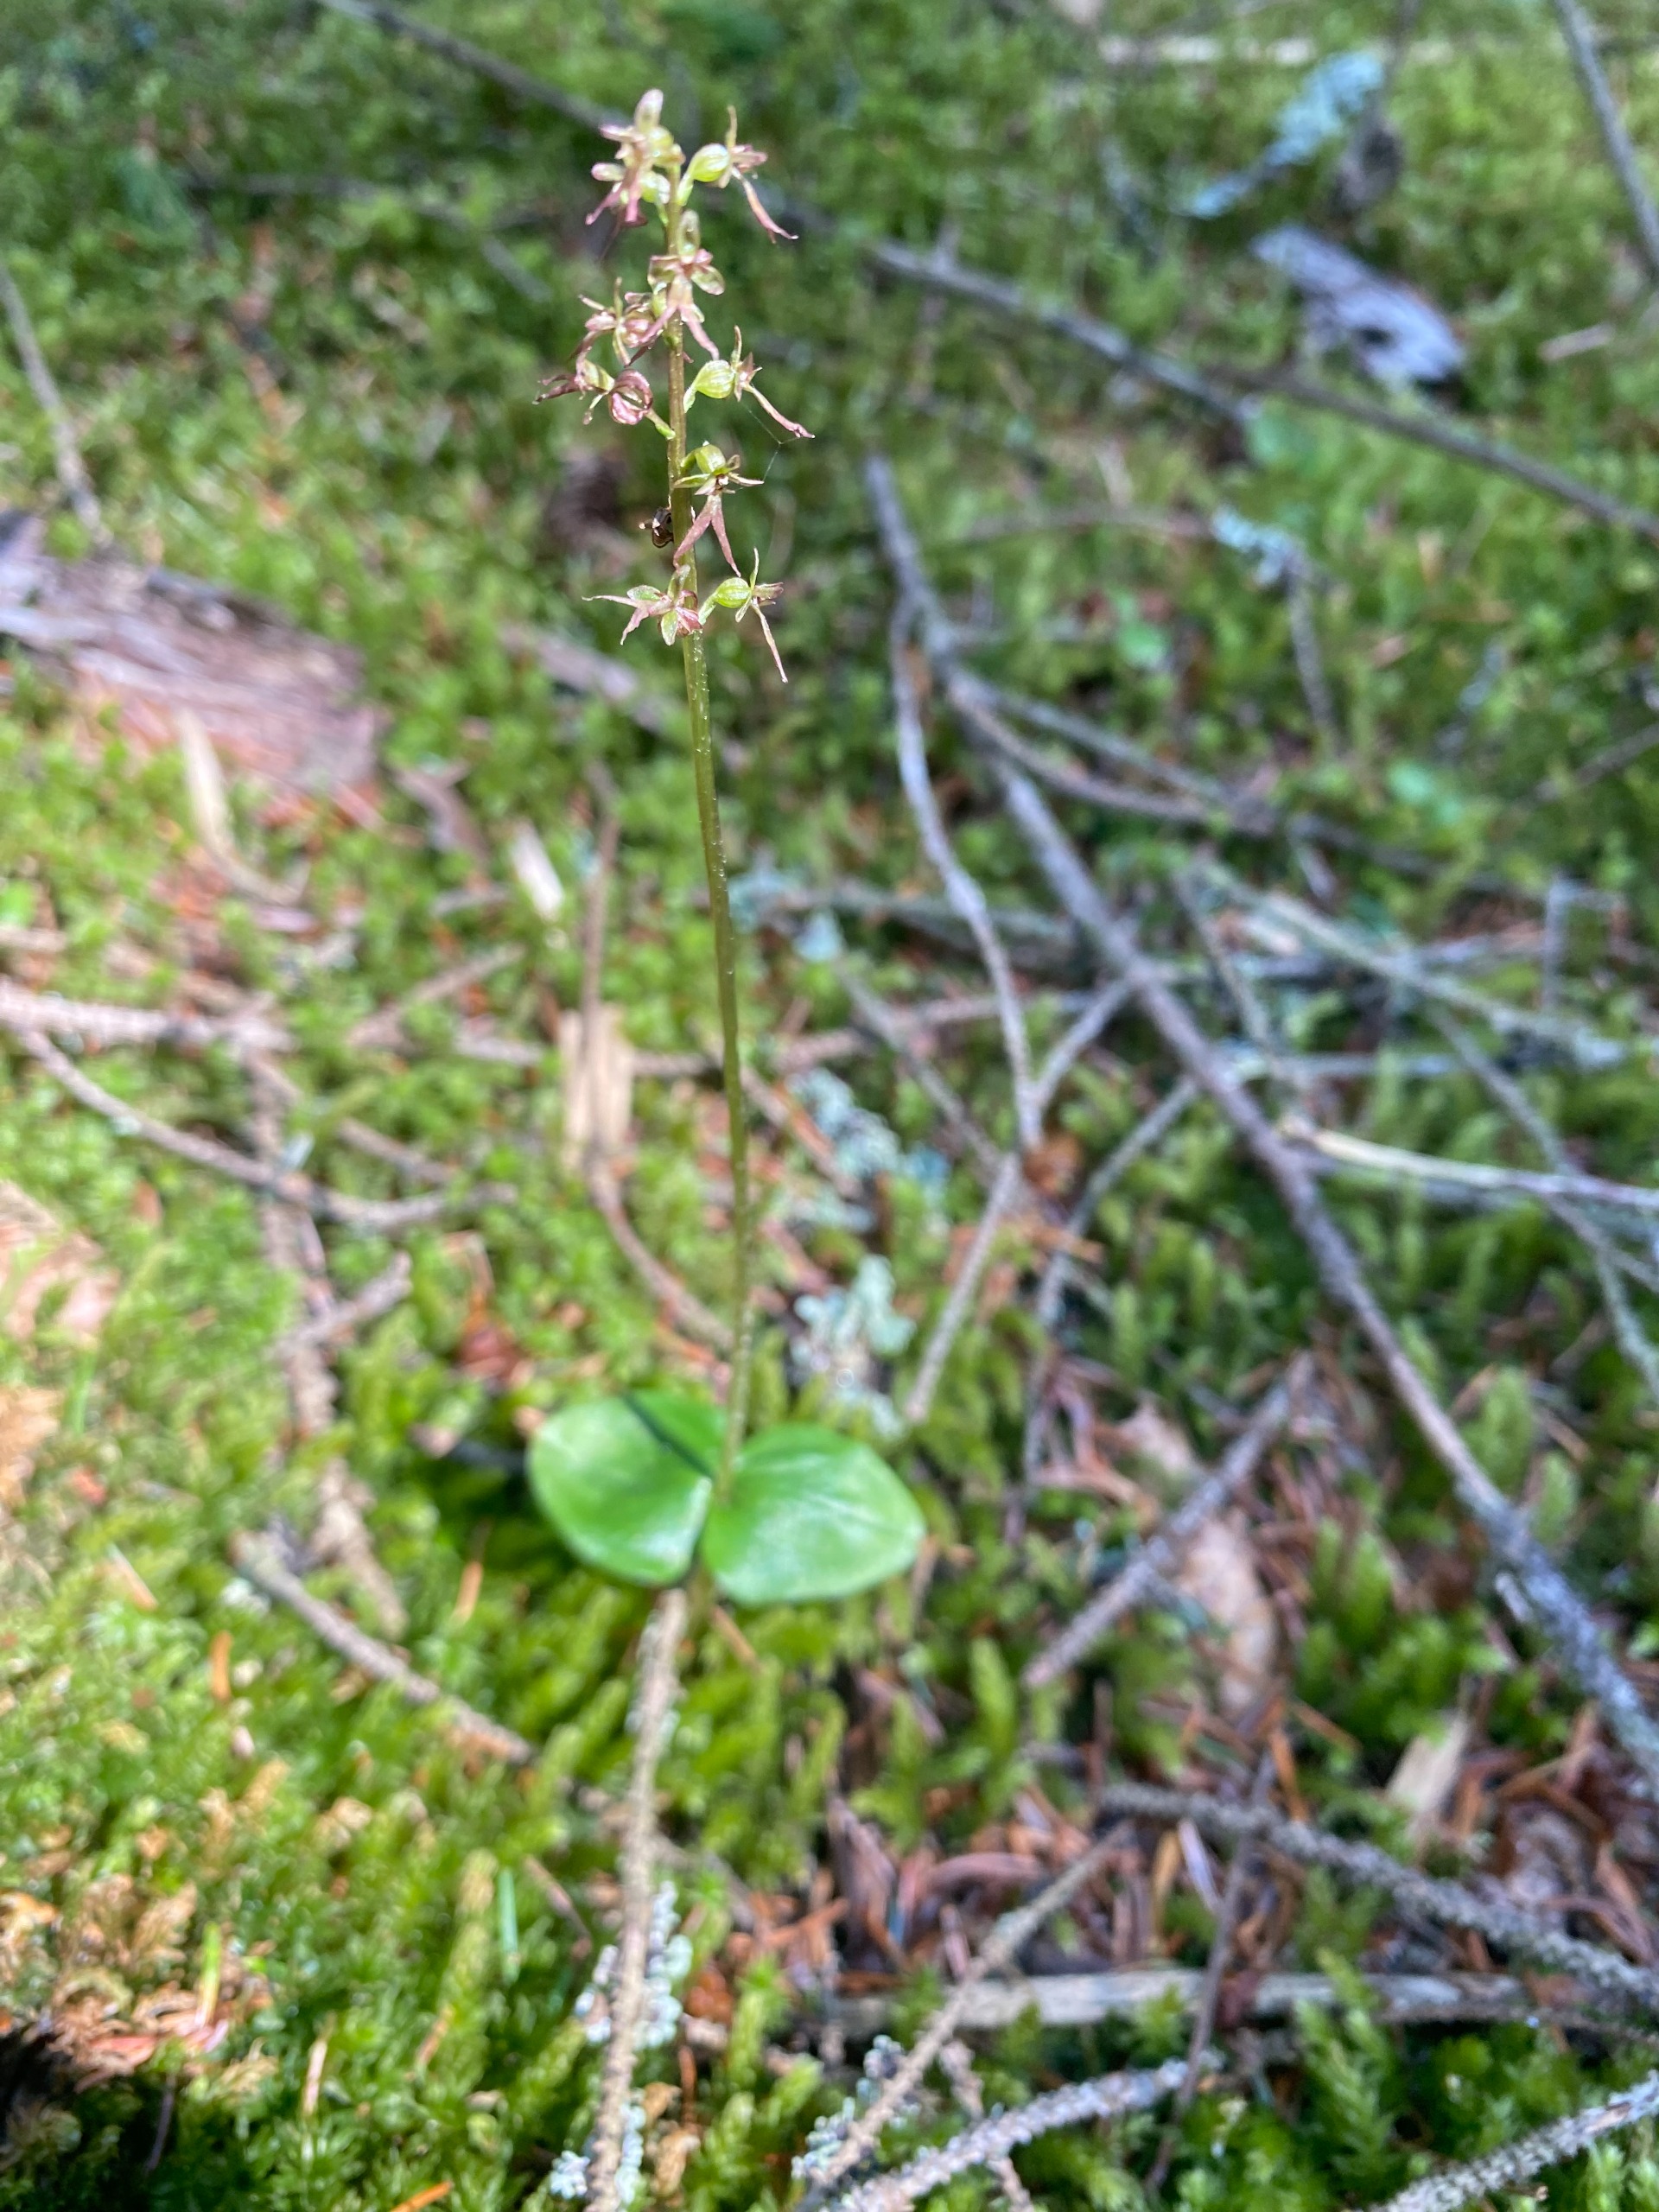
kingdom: Plantae
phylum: Tracheophyta
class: Liliopsida
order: Asparagales
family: Orchidaceae
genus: Neottia
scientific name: Neottia cordata
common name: Hjertebladet fliglæbe
